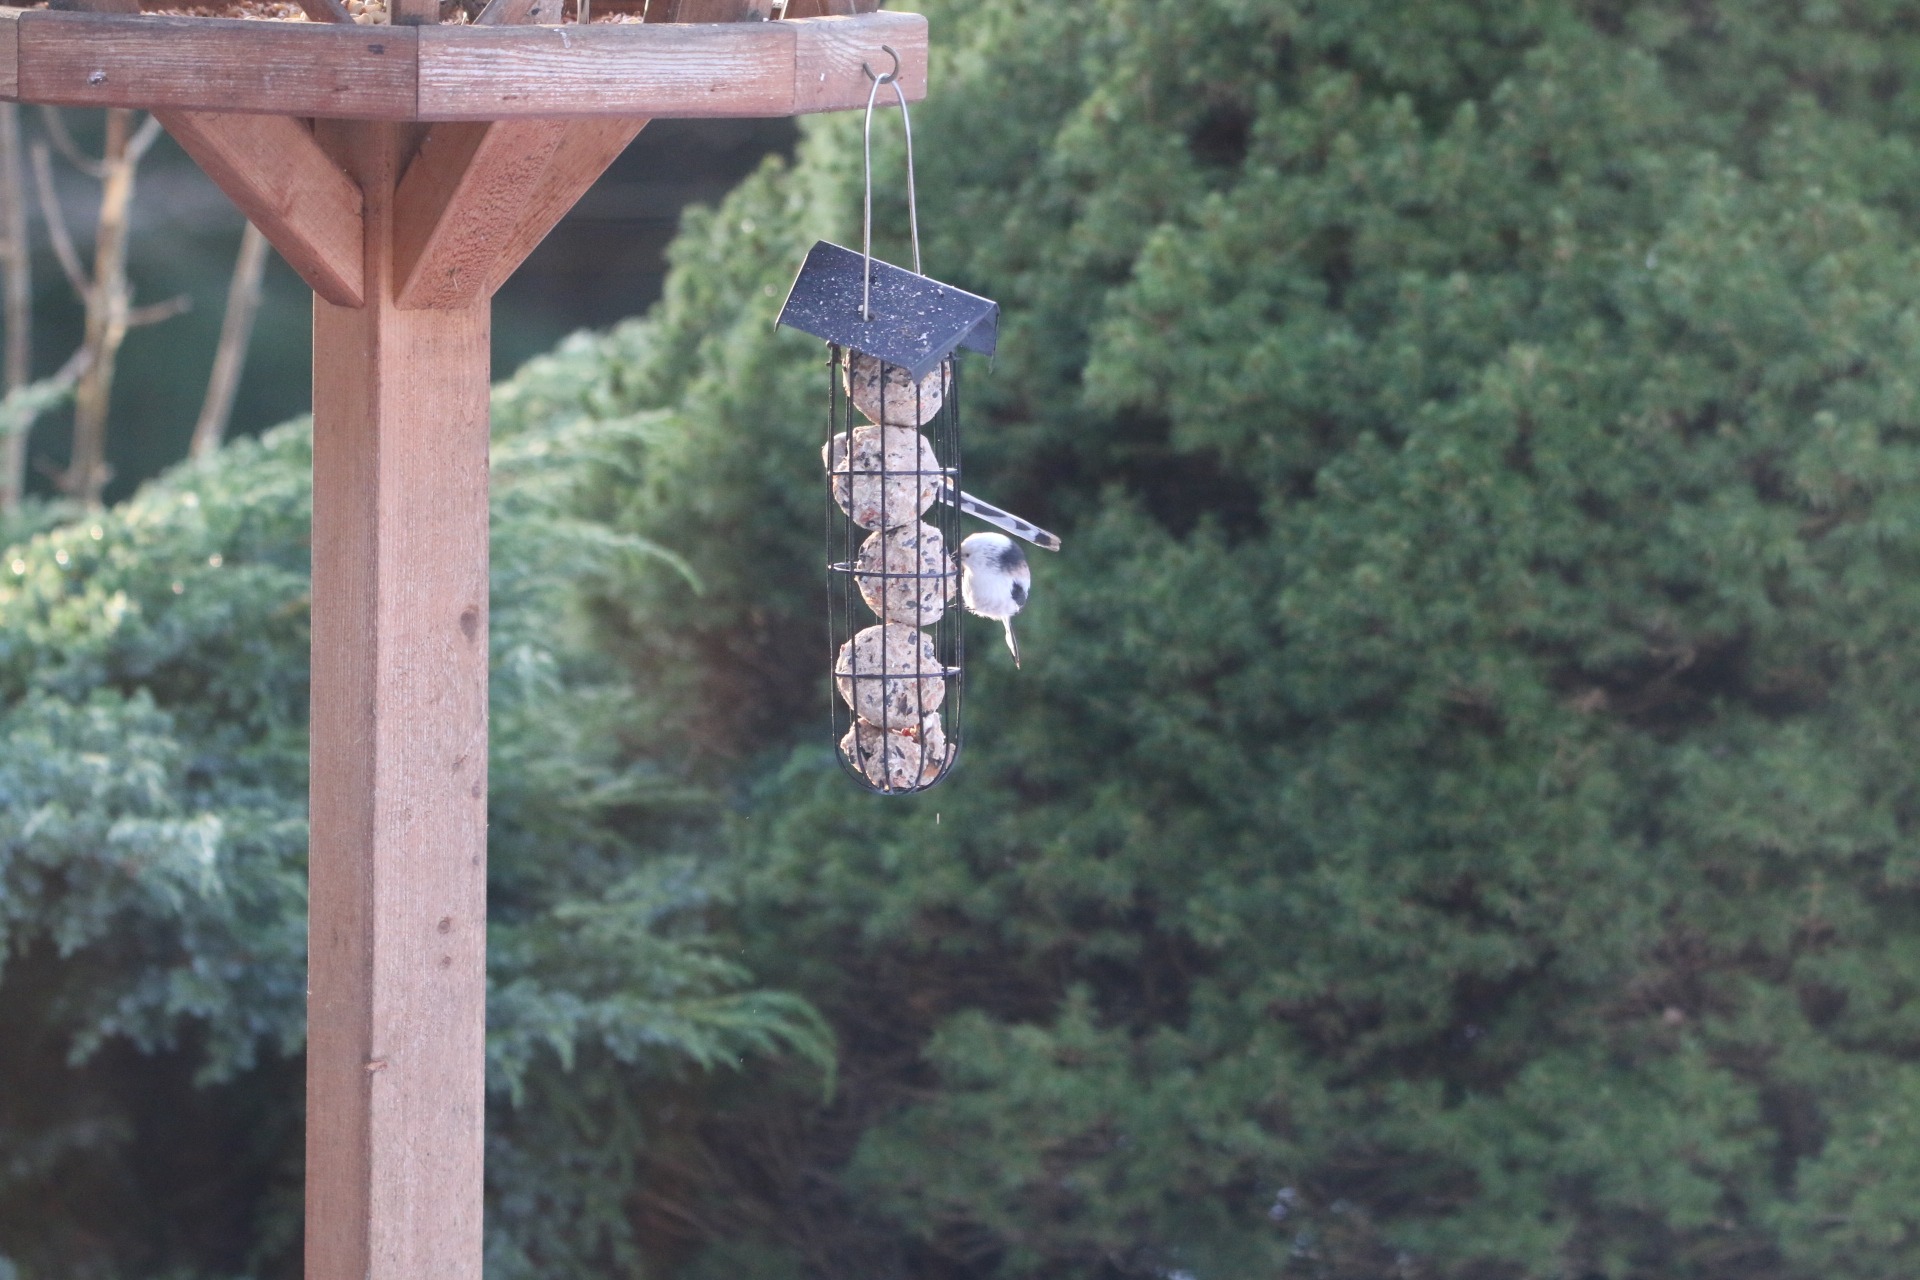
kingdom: Animalia
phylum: Chordata
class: Aves
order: Passeriformes
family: Aegithalidae
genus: Aegithalos
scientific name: Aegithalos caudatus
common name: Halemejse
